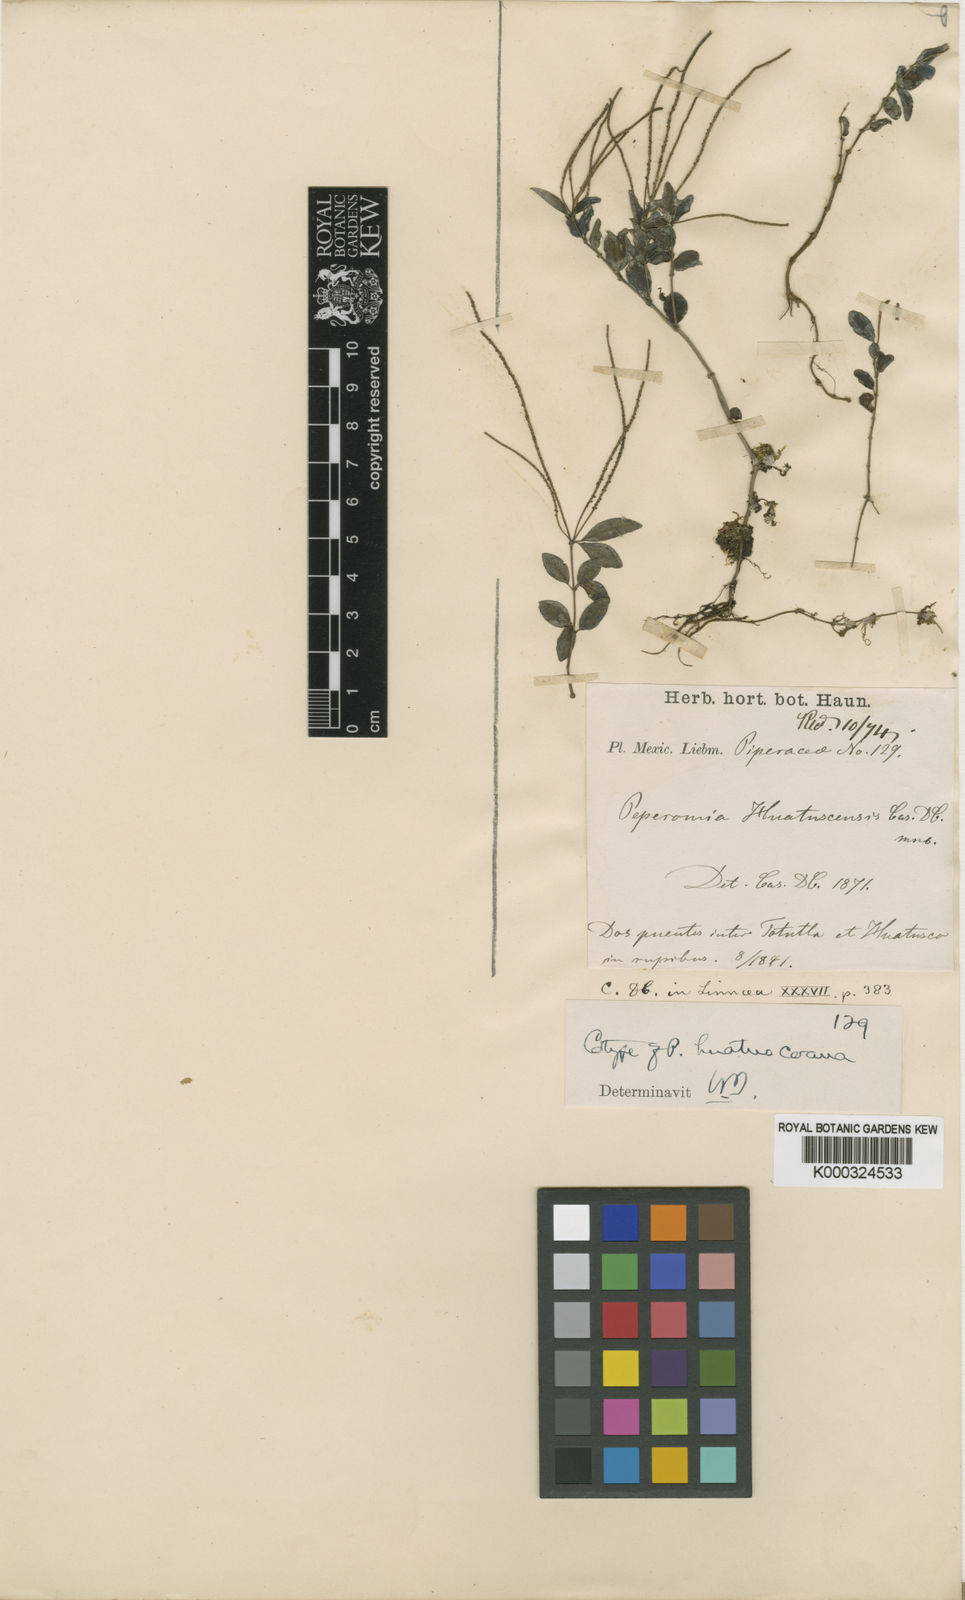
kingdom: Plantae
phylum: Tracheophyta
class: Magnoliopsida
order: Piperales
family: Piperaceae
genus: Peperomia
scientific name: Peperomia huatuscoana
